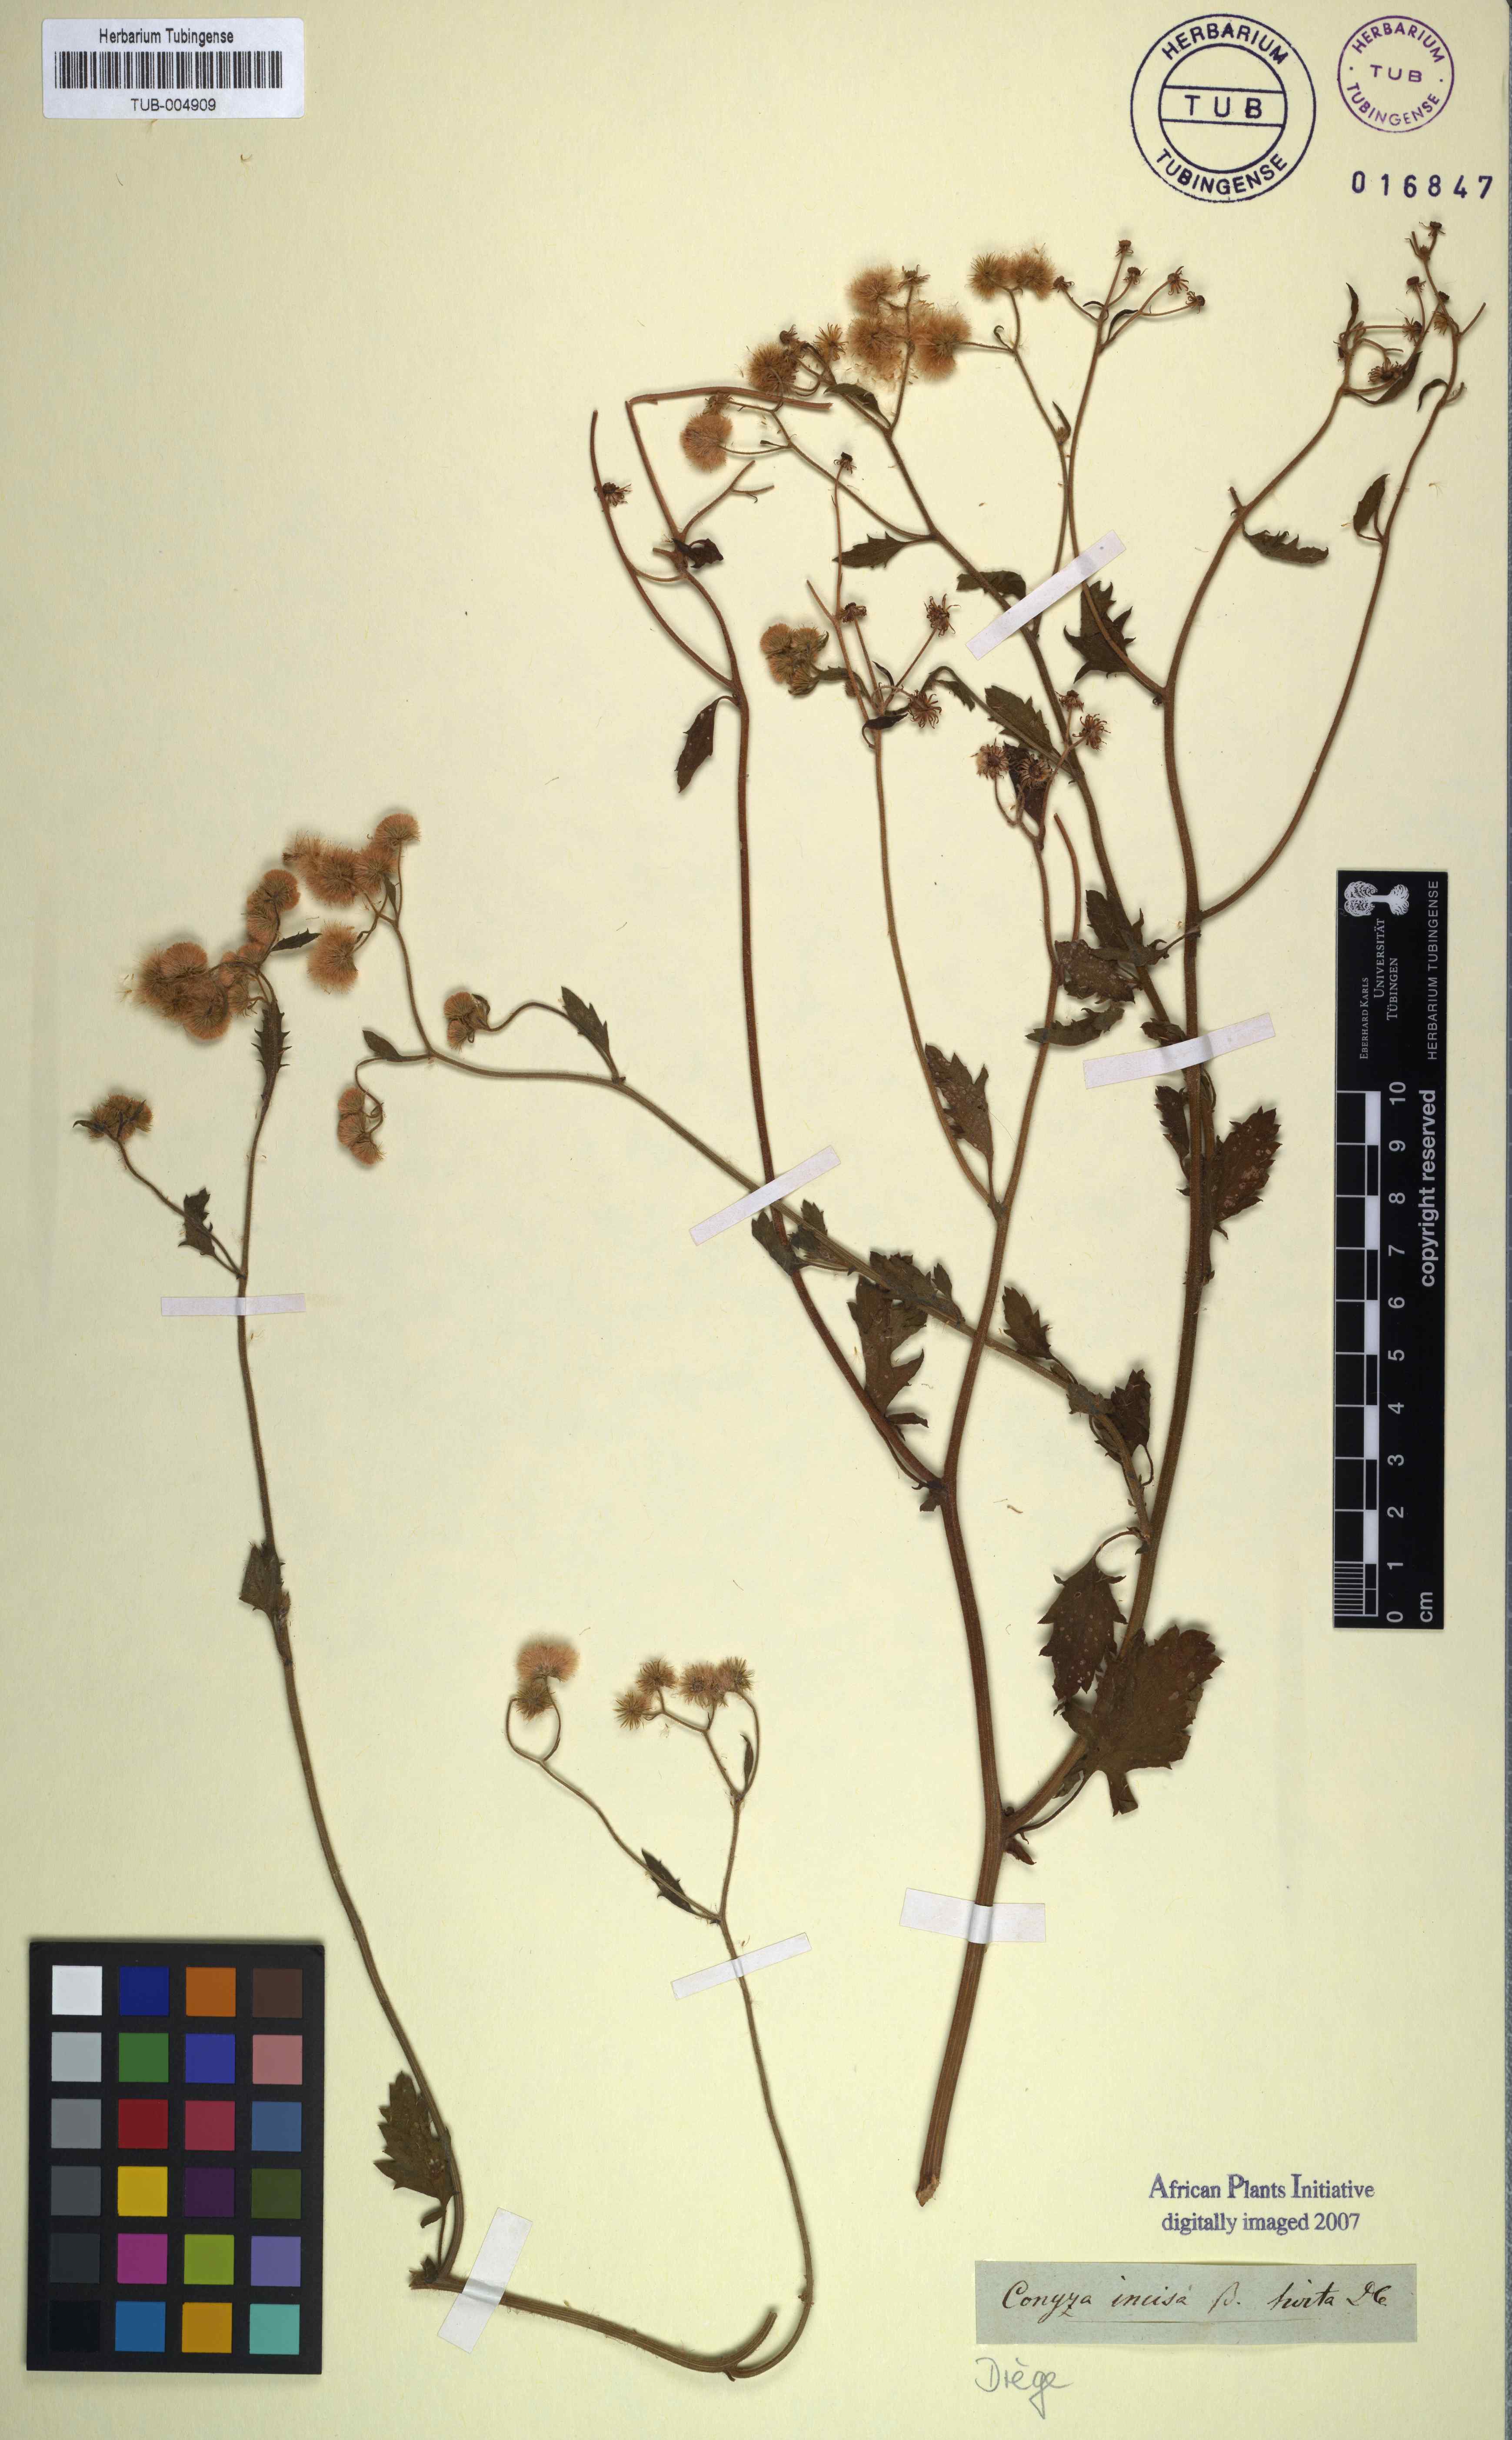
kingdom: Plantae
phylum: Tracheophyta
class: Magnoliopsida
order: Asterales
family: Asteraceae
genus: Eschenbachia
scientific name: Eschenbachia ulmifolia
